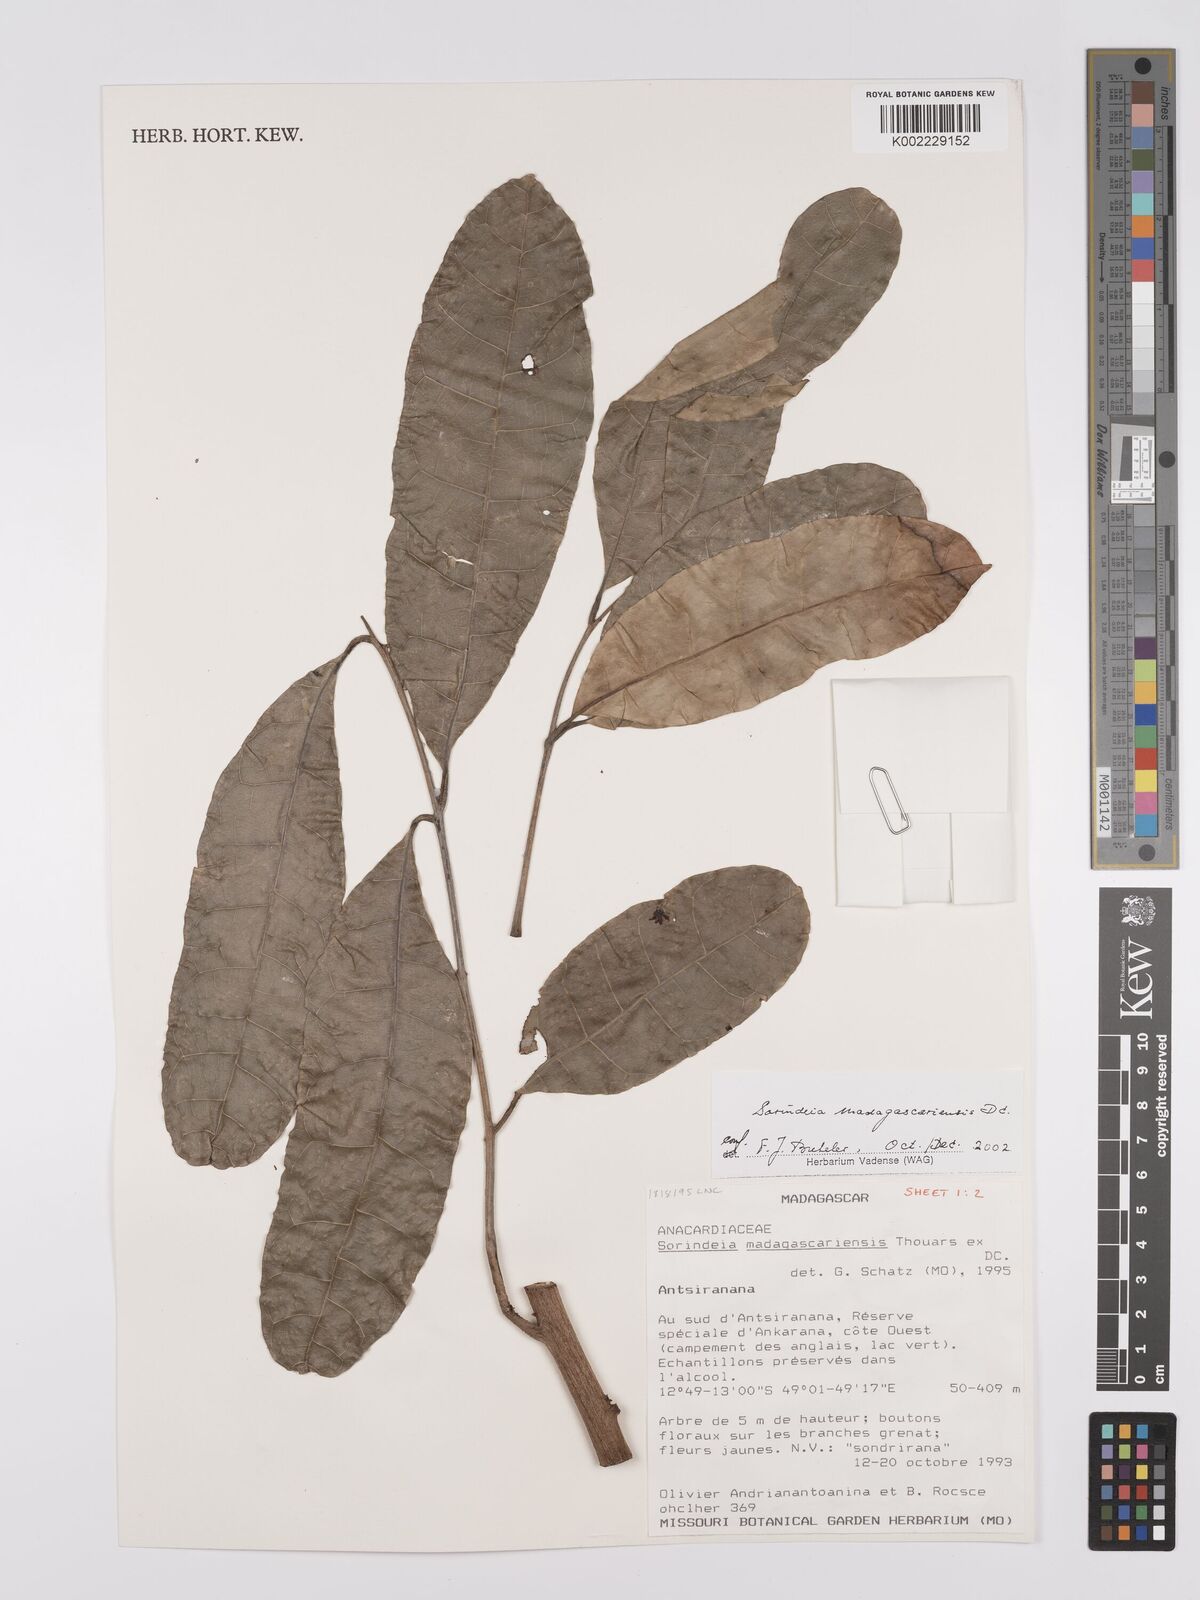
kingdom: Plantae
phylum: Tracheophyta
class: Magnoliopsida
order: Sapindales
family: Anacardiaceae
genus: Sorindeia
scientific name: Sorindeia madagascariensis
